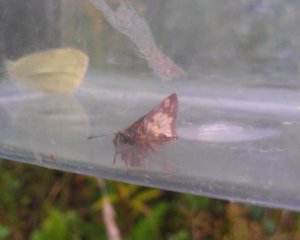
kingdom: Animalia
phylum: Arthropoda
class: Insecta
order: Lepidoptera
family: Hesperiidae
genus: Polites
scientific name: Polites coras
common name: Peck's Skipper
